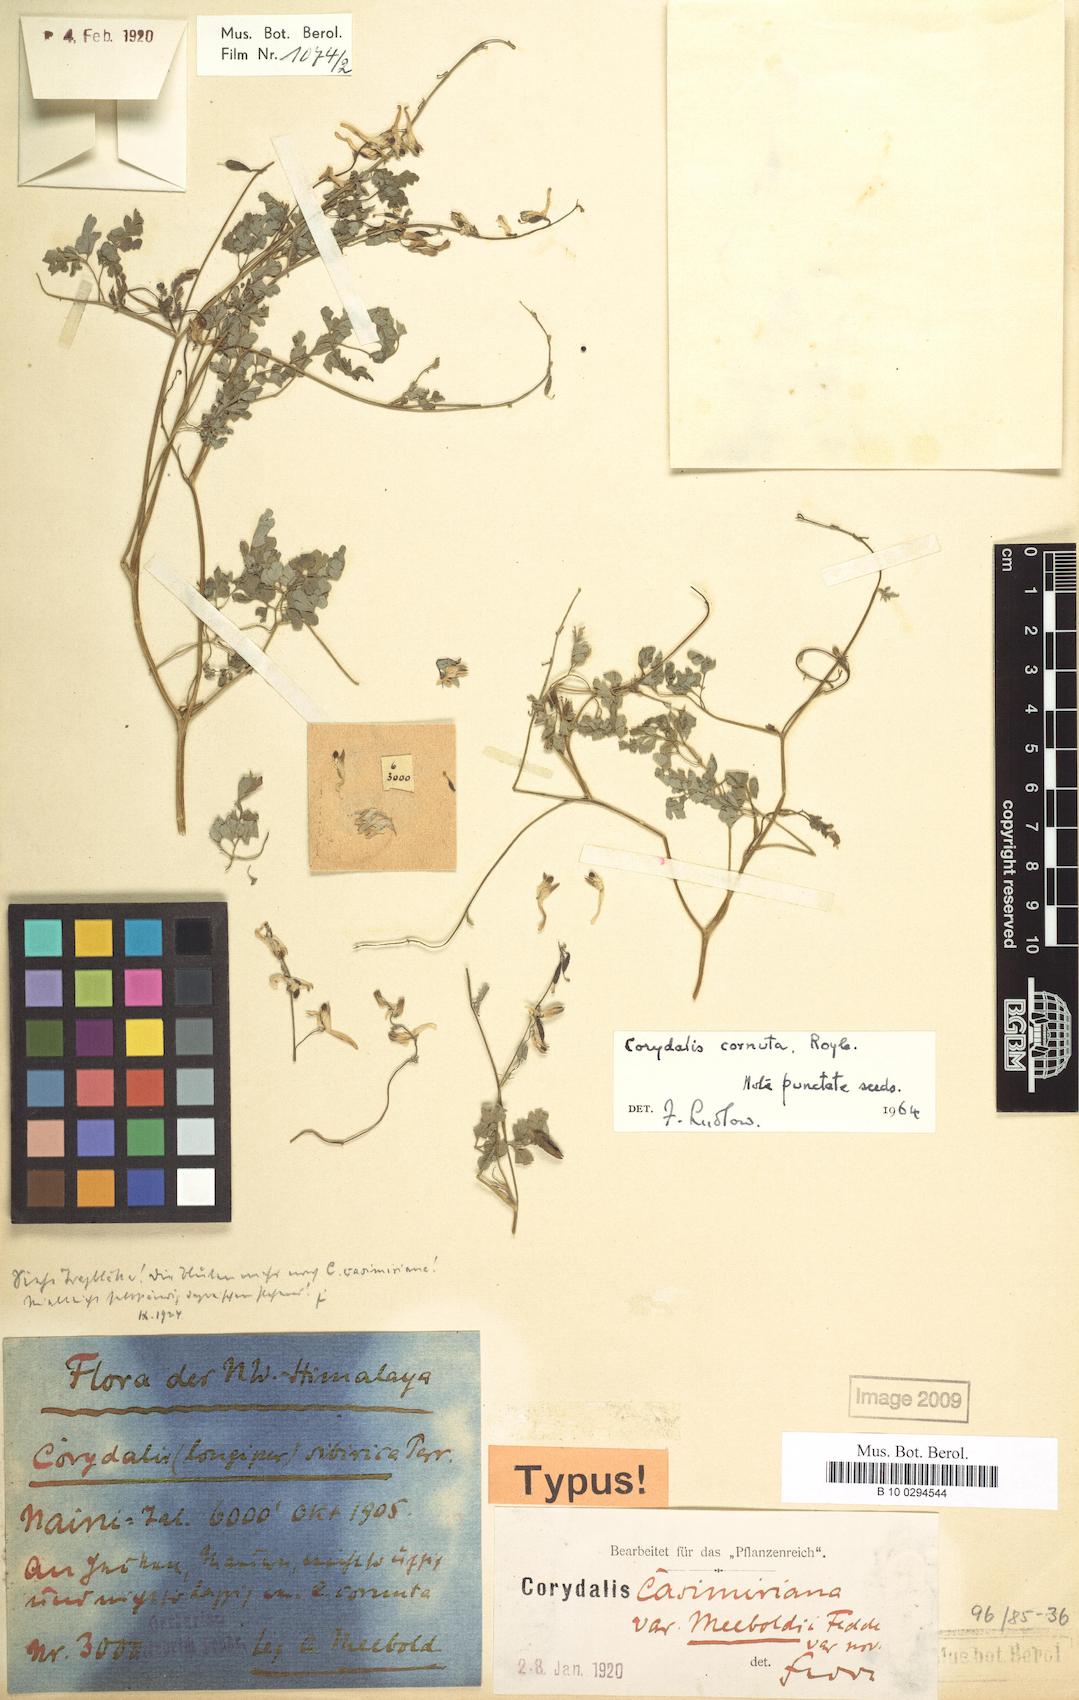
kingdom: Plantae
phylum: Tracheophyta
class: Magnoliopsida
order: Ranunculales
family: Papaveraceae
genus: Corydalis
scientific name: Corydalis cornuta
